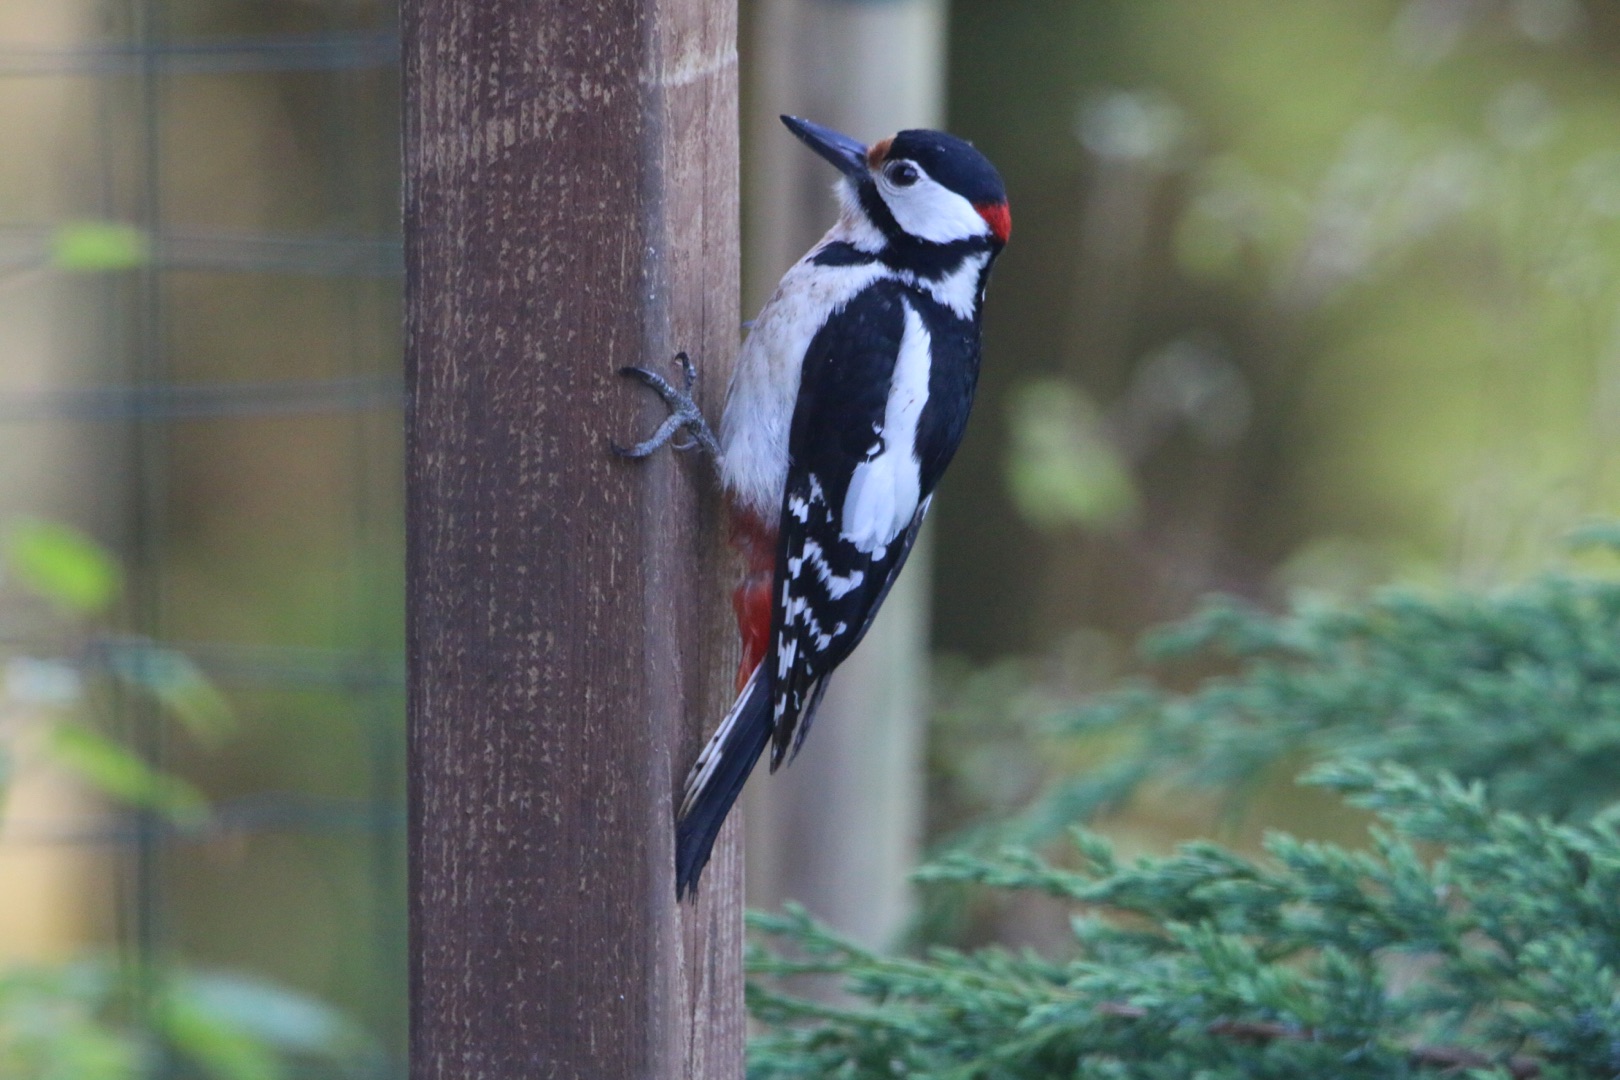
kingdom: Animalia
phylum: Chordata
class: Aves
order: Piciformes
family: Picidae
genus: Dendrocopos
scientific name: Dendrocopos major
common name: Stor flagspætte
